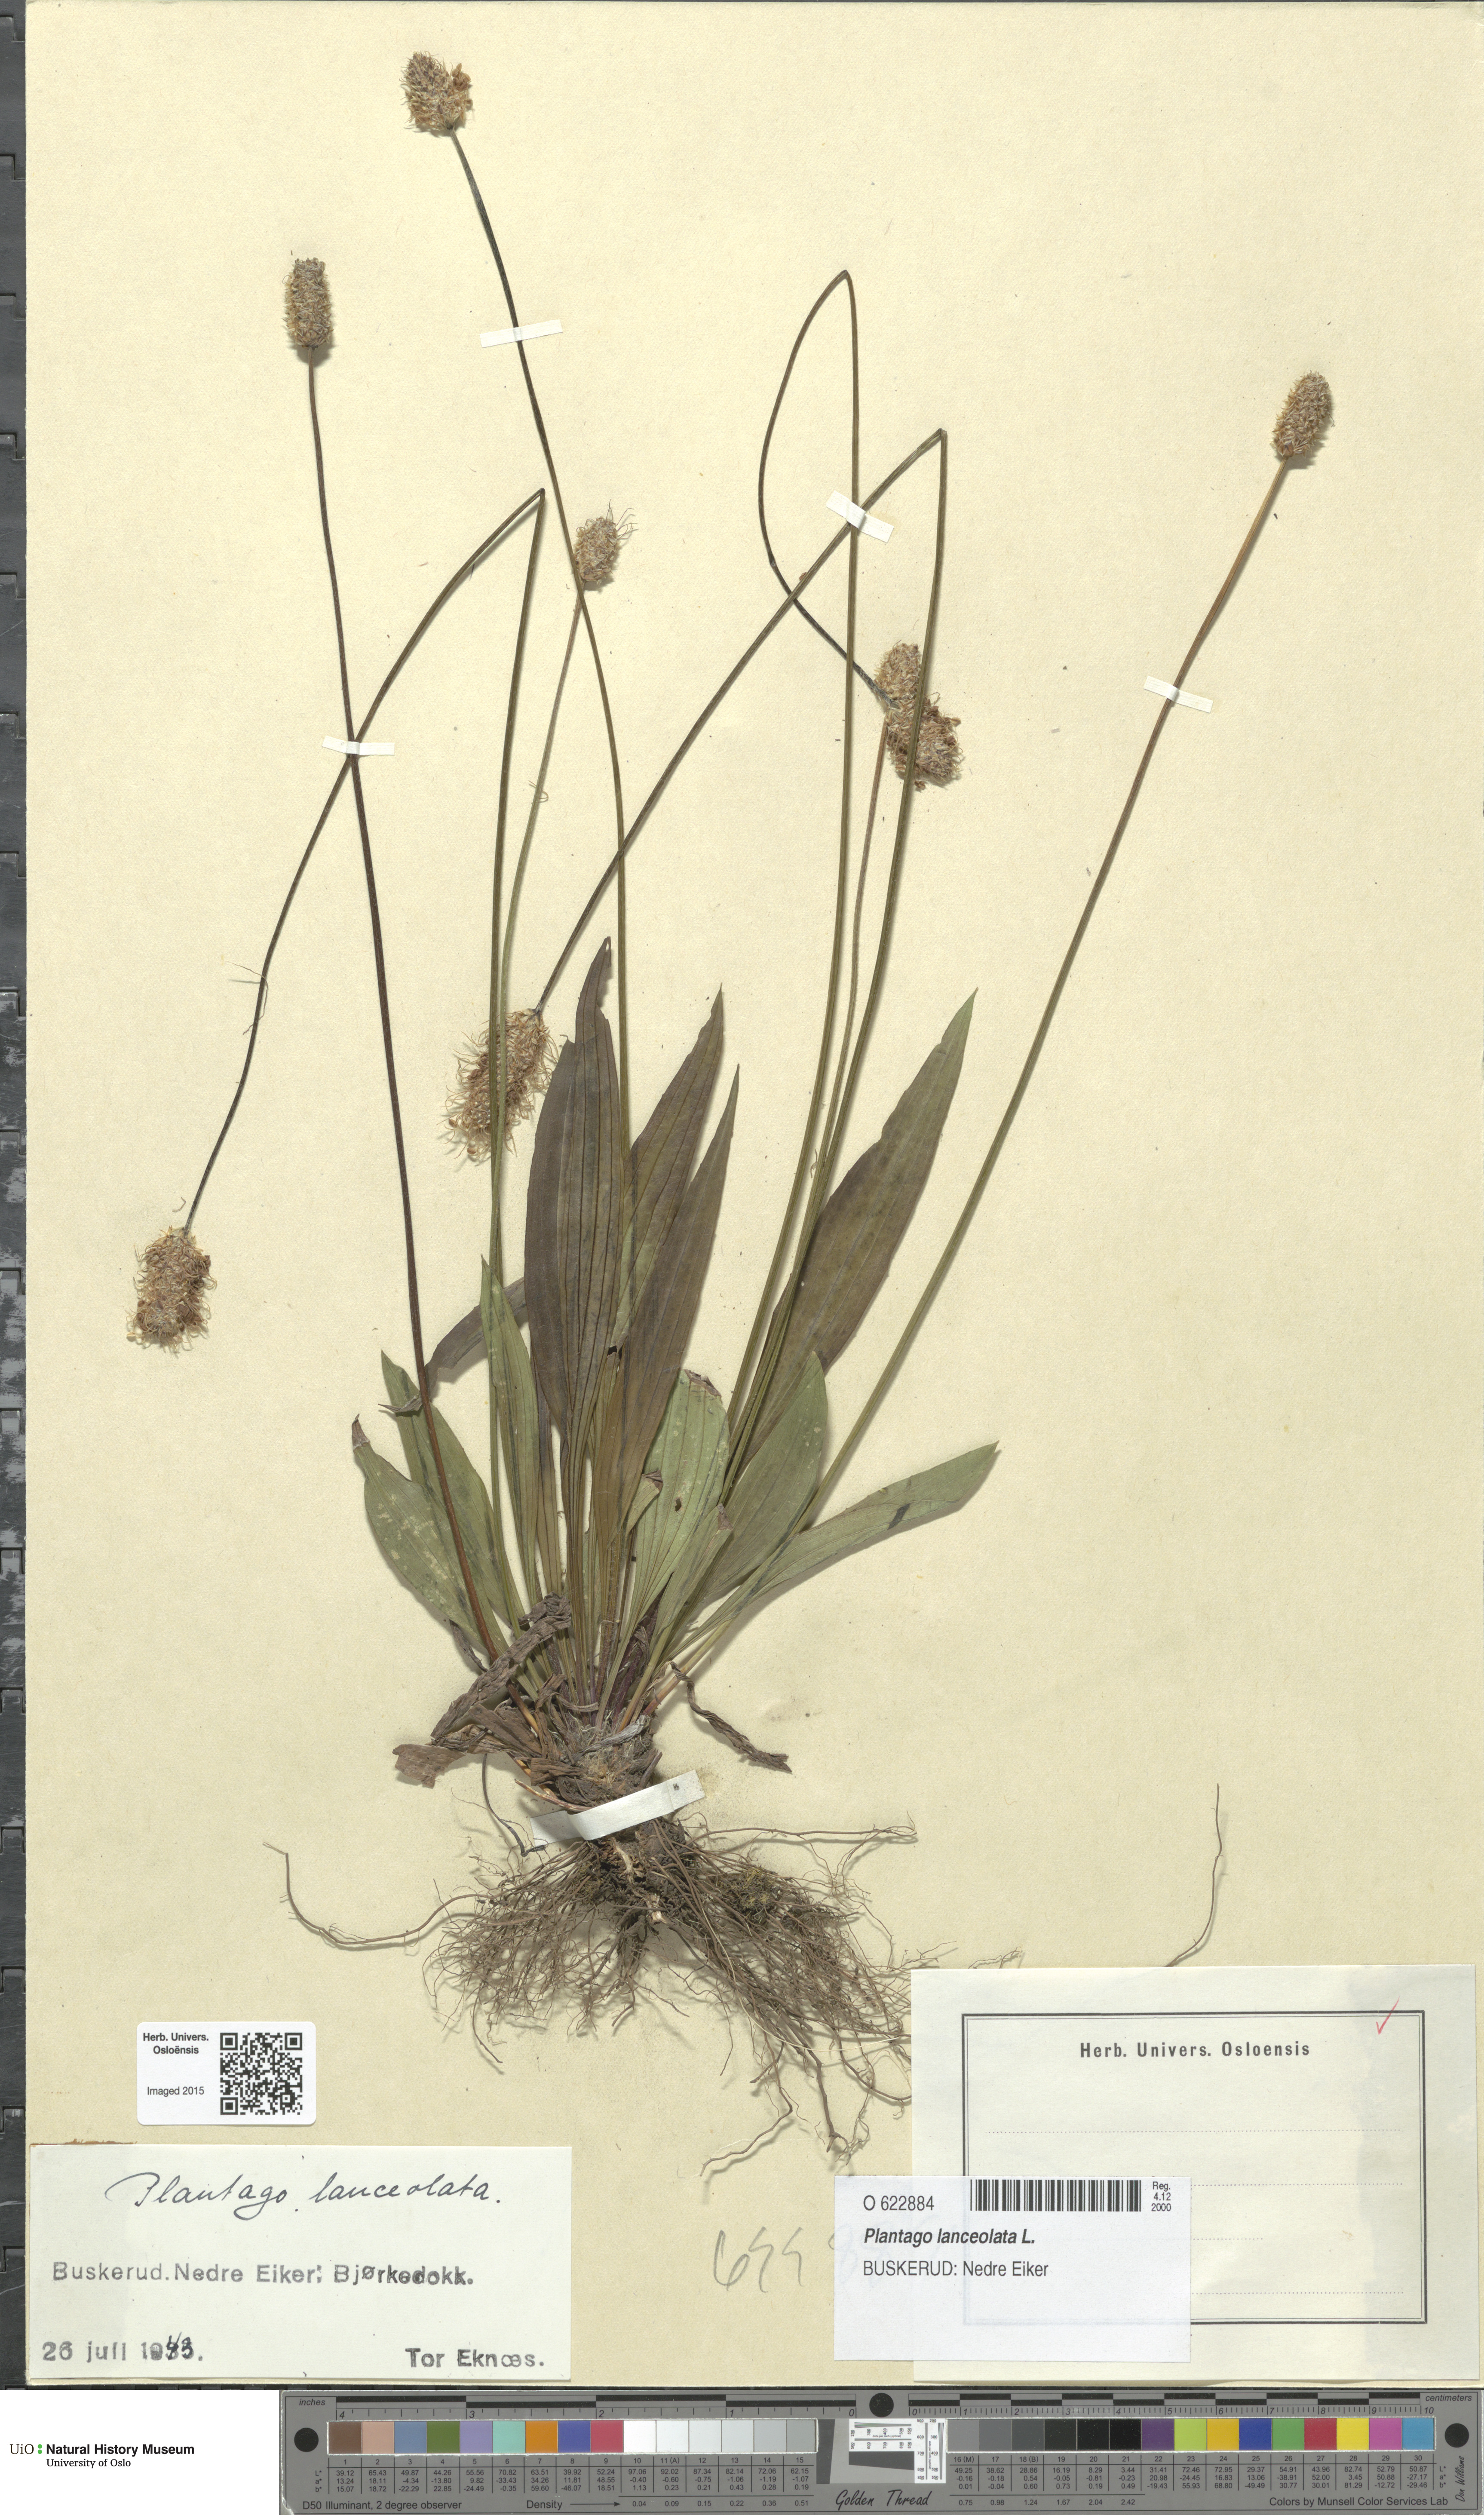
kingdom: Plantae
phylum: Tracheophyta
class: Magnoliopsida
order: Lamiales
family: Plantaginaceae
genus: Plantago
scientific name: Plantago lanceolata
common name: Ribwort plantain
